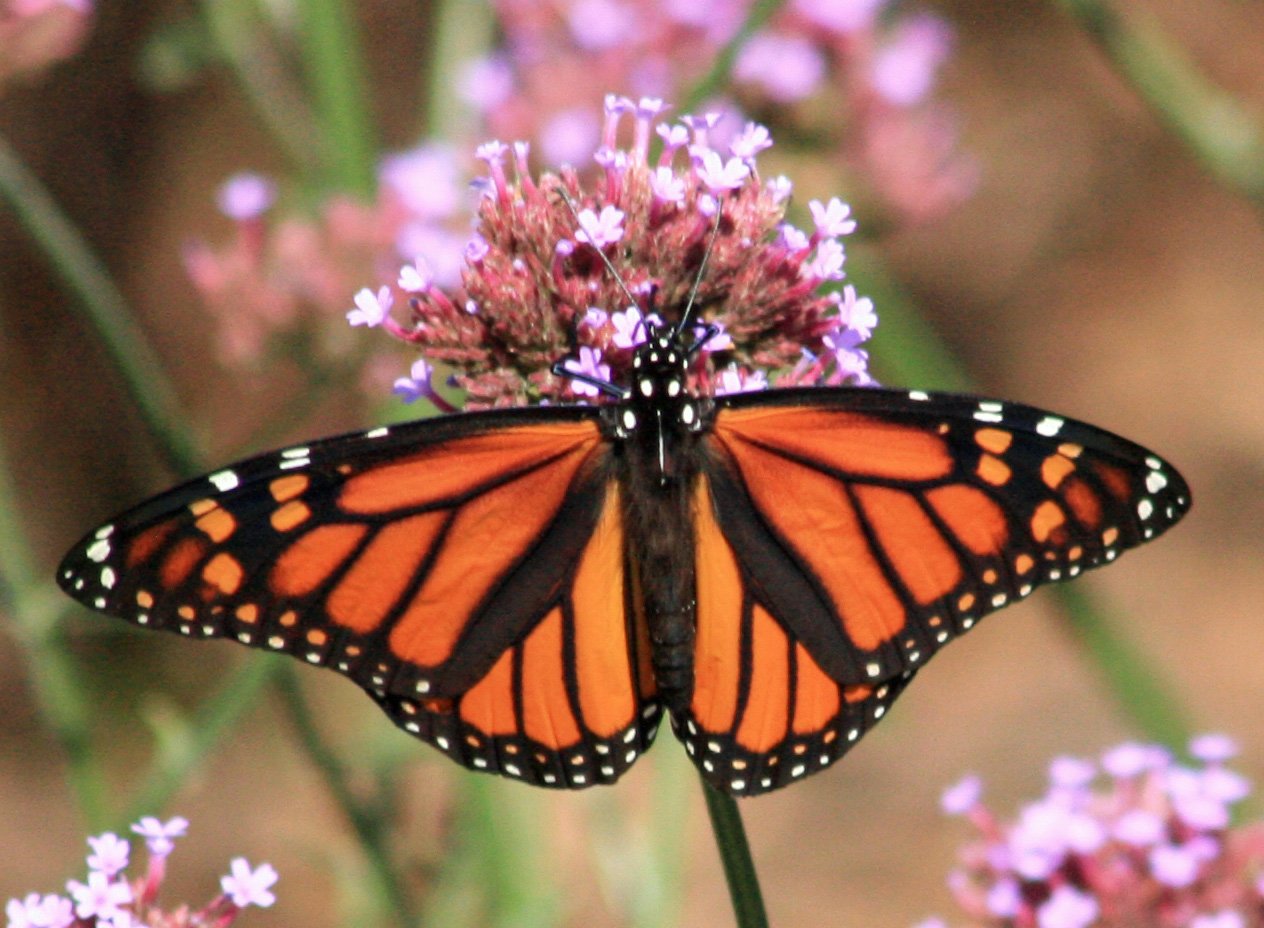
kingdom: Animalia
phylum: Arthropoda
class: Insecta
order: Lepidoptera
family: Nymphalidae
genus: Danaus
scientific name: Danaus plexippus
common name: Monarch
